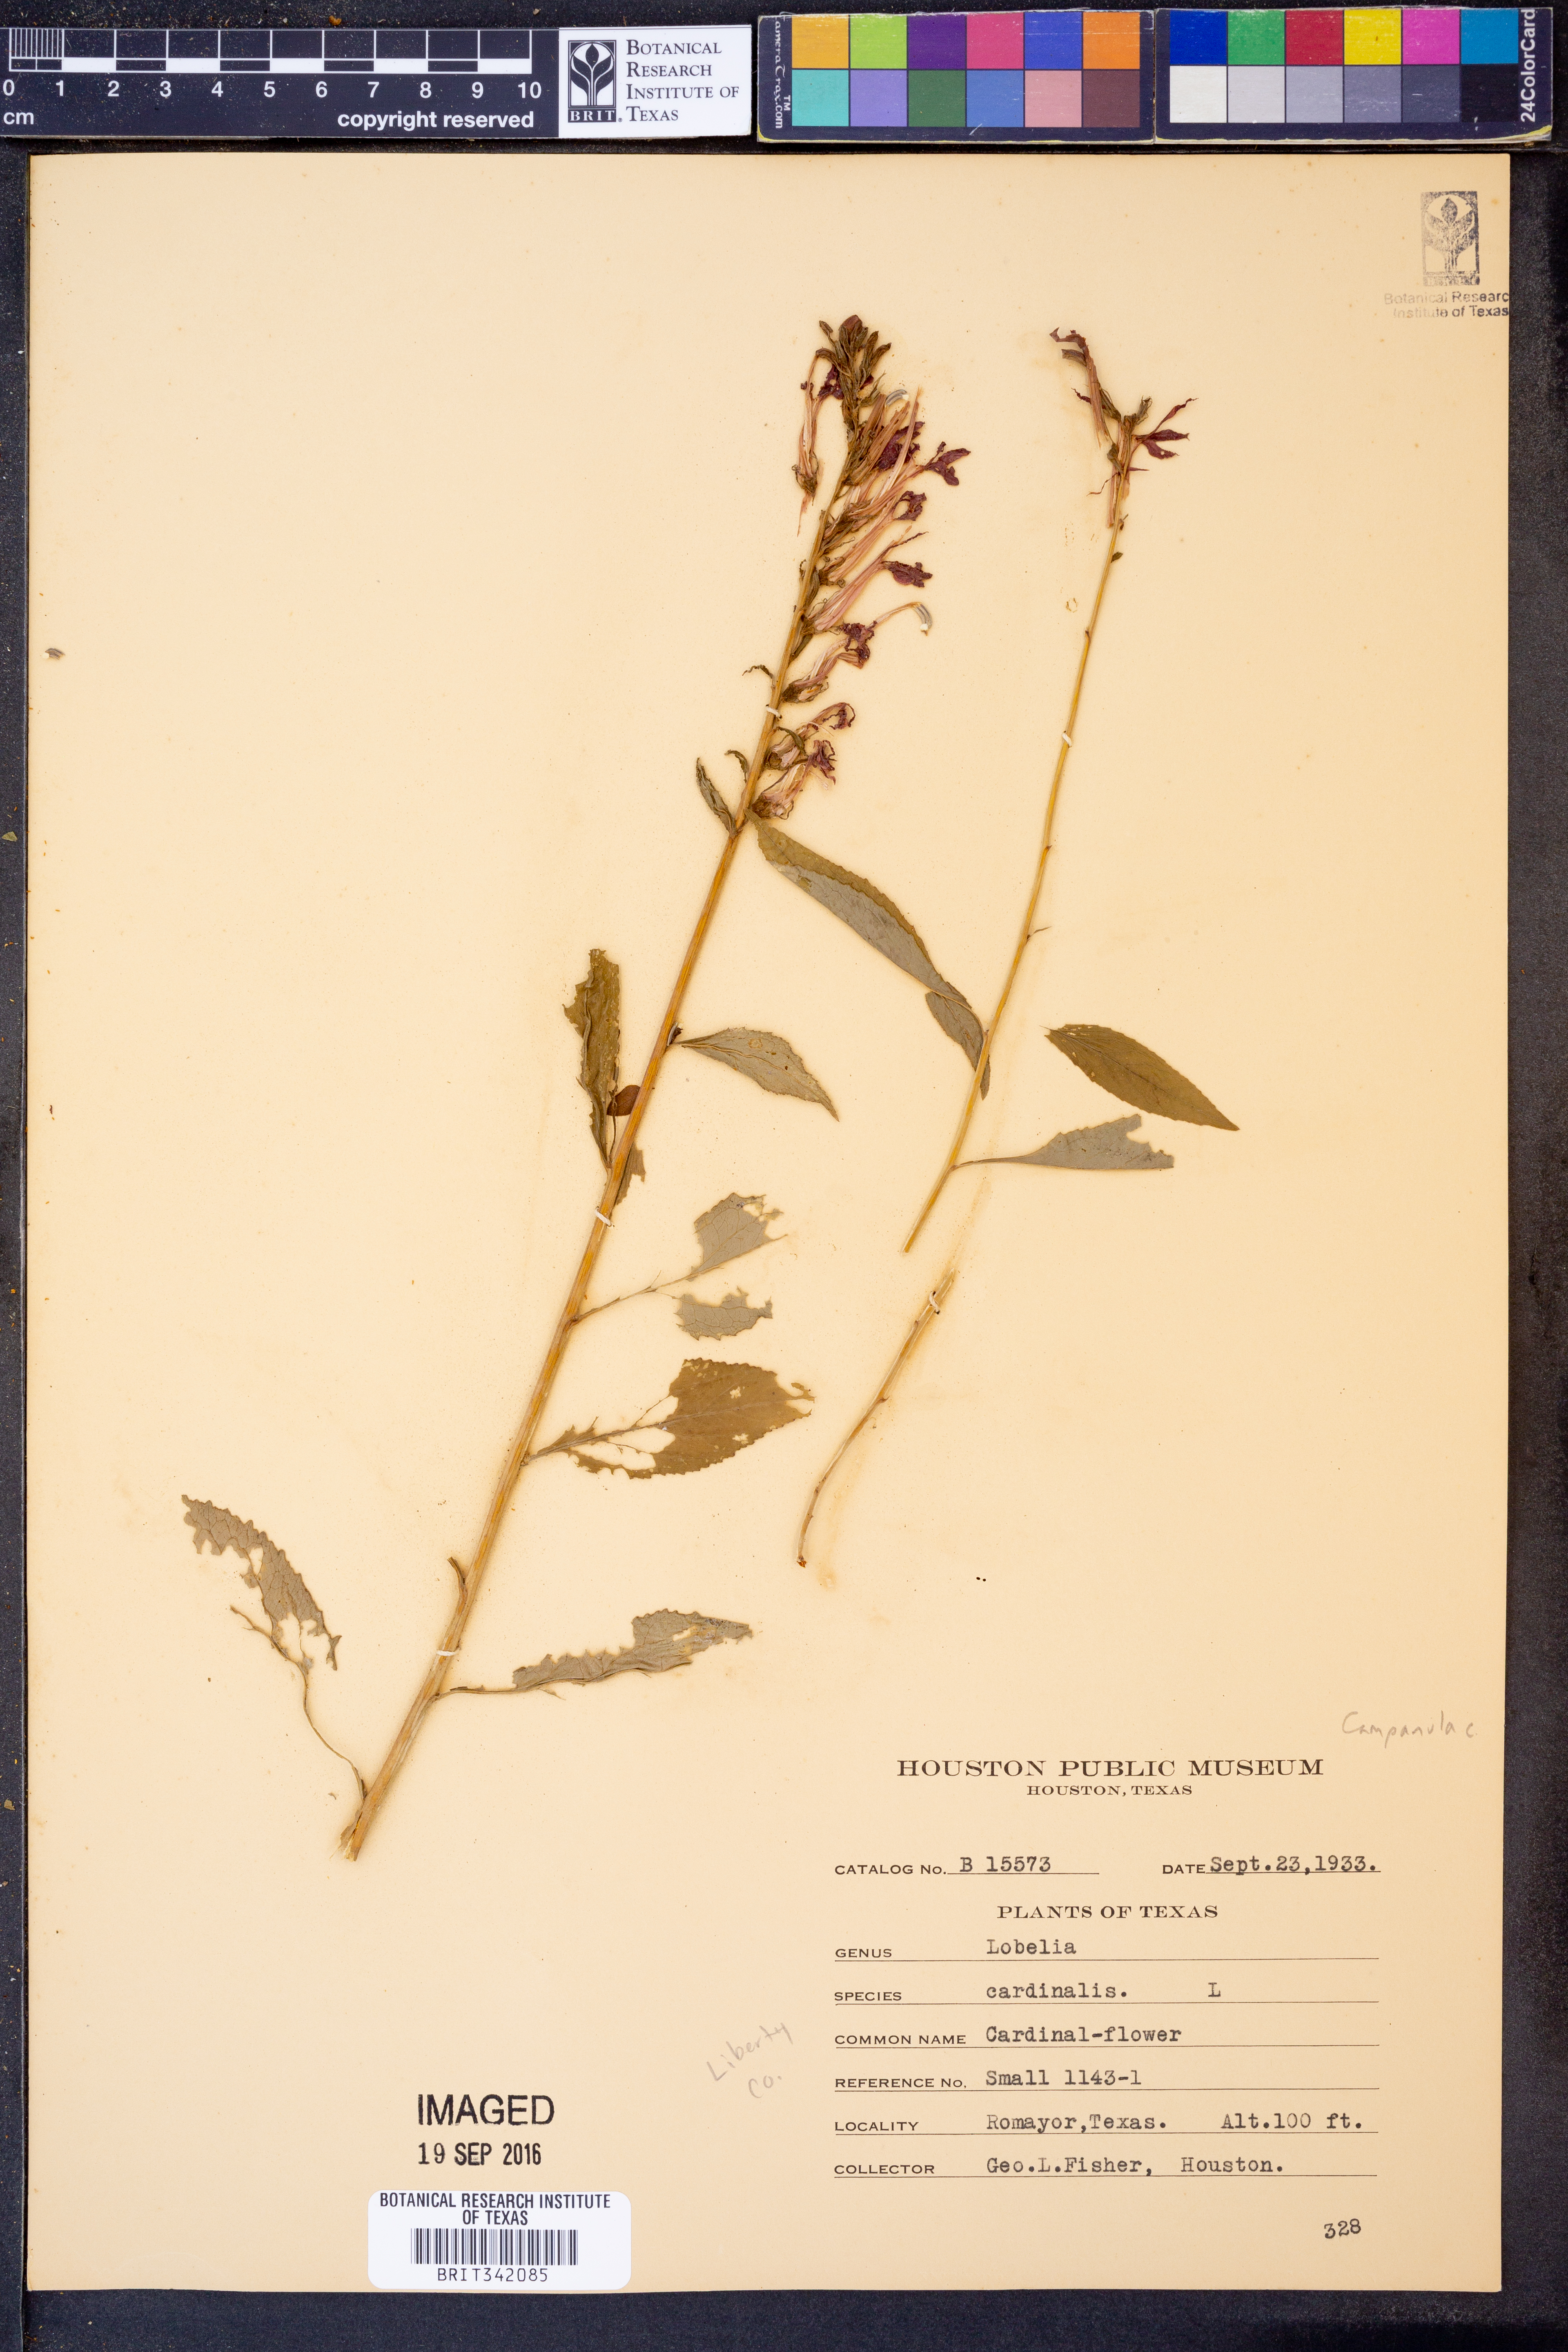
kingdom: Plantae
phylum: Tracheophyta
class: Magnoliopsida
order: Asterales
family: Campanulaceae
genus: Lobelia
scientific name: Lobelia cardinalis
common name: Cardinal flower
